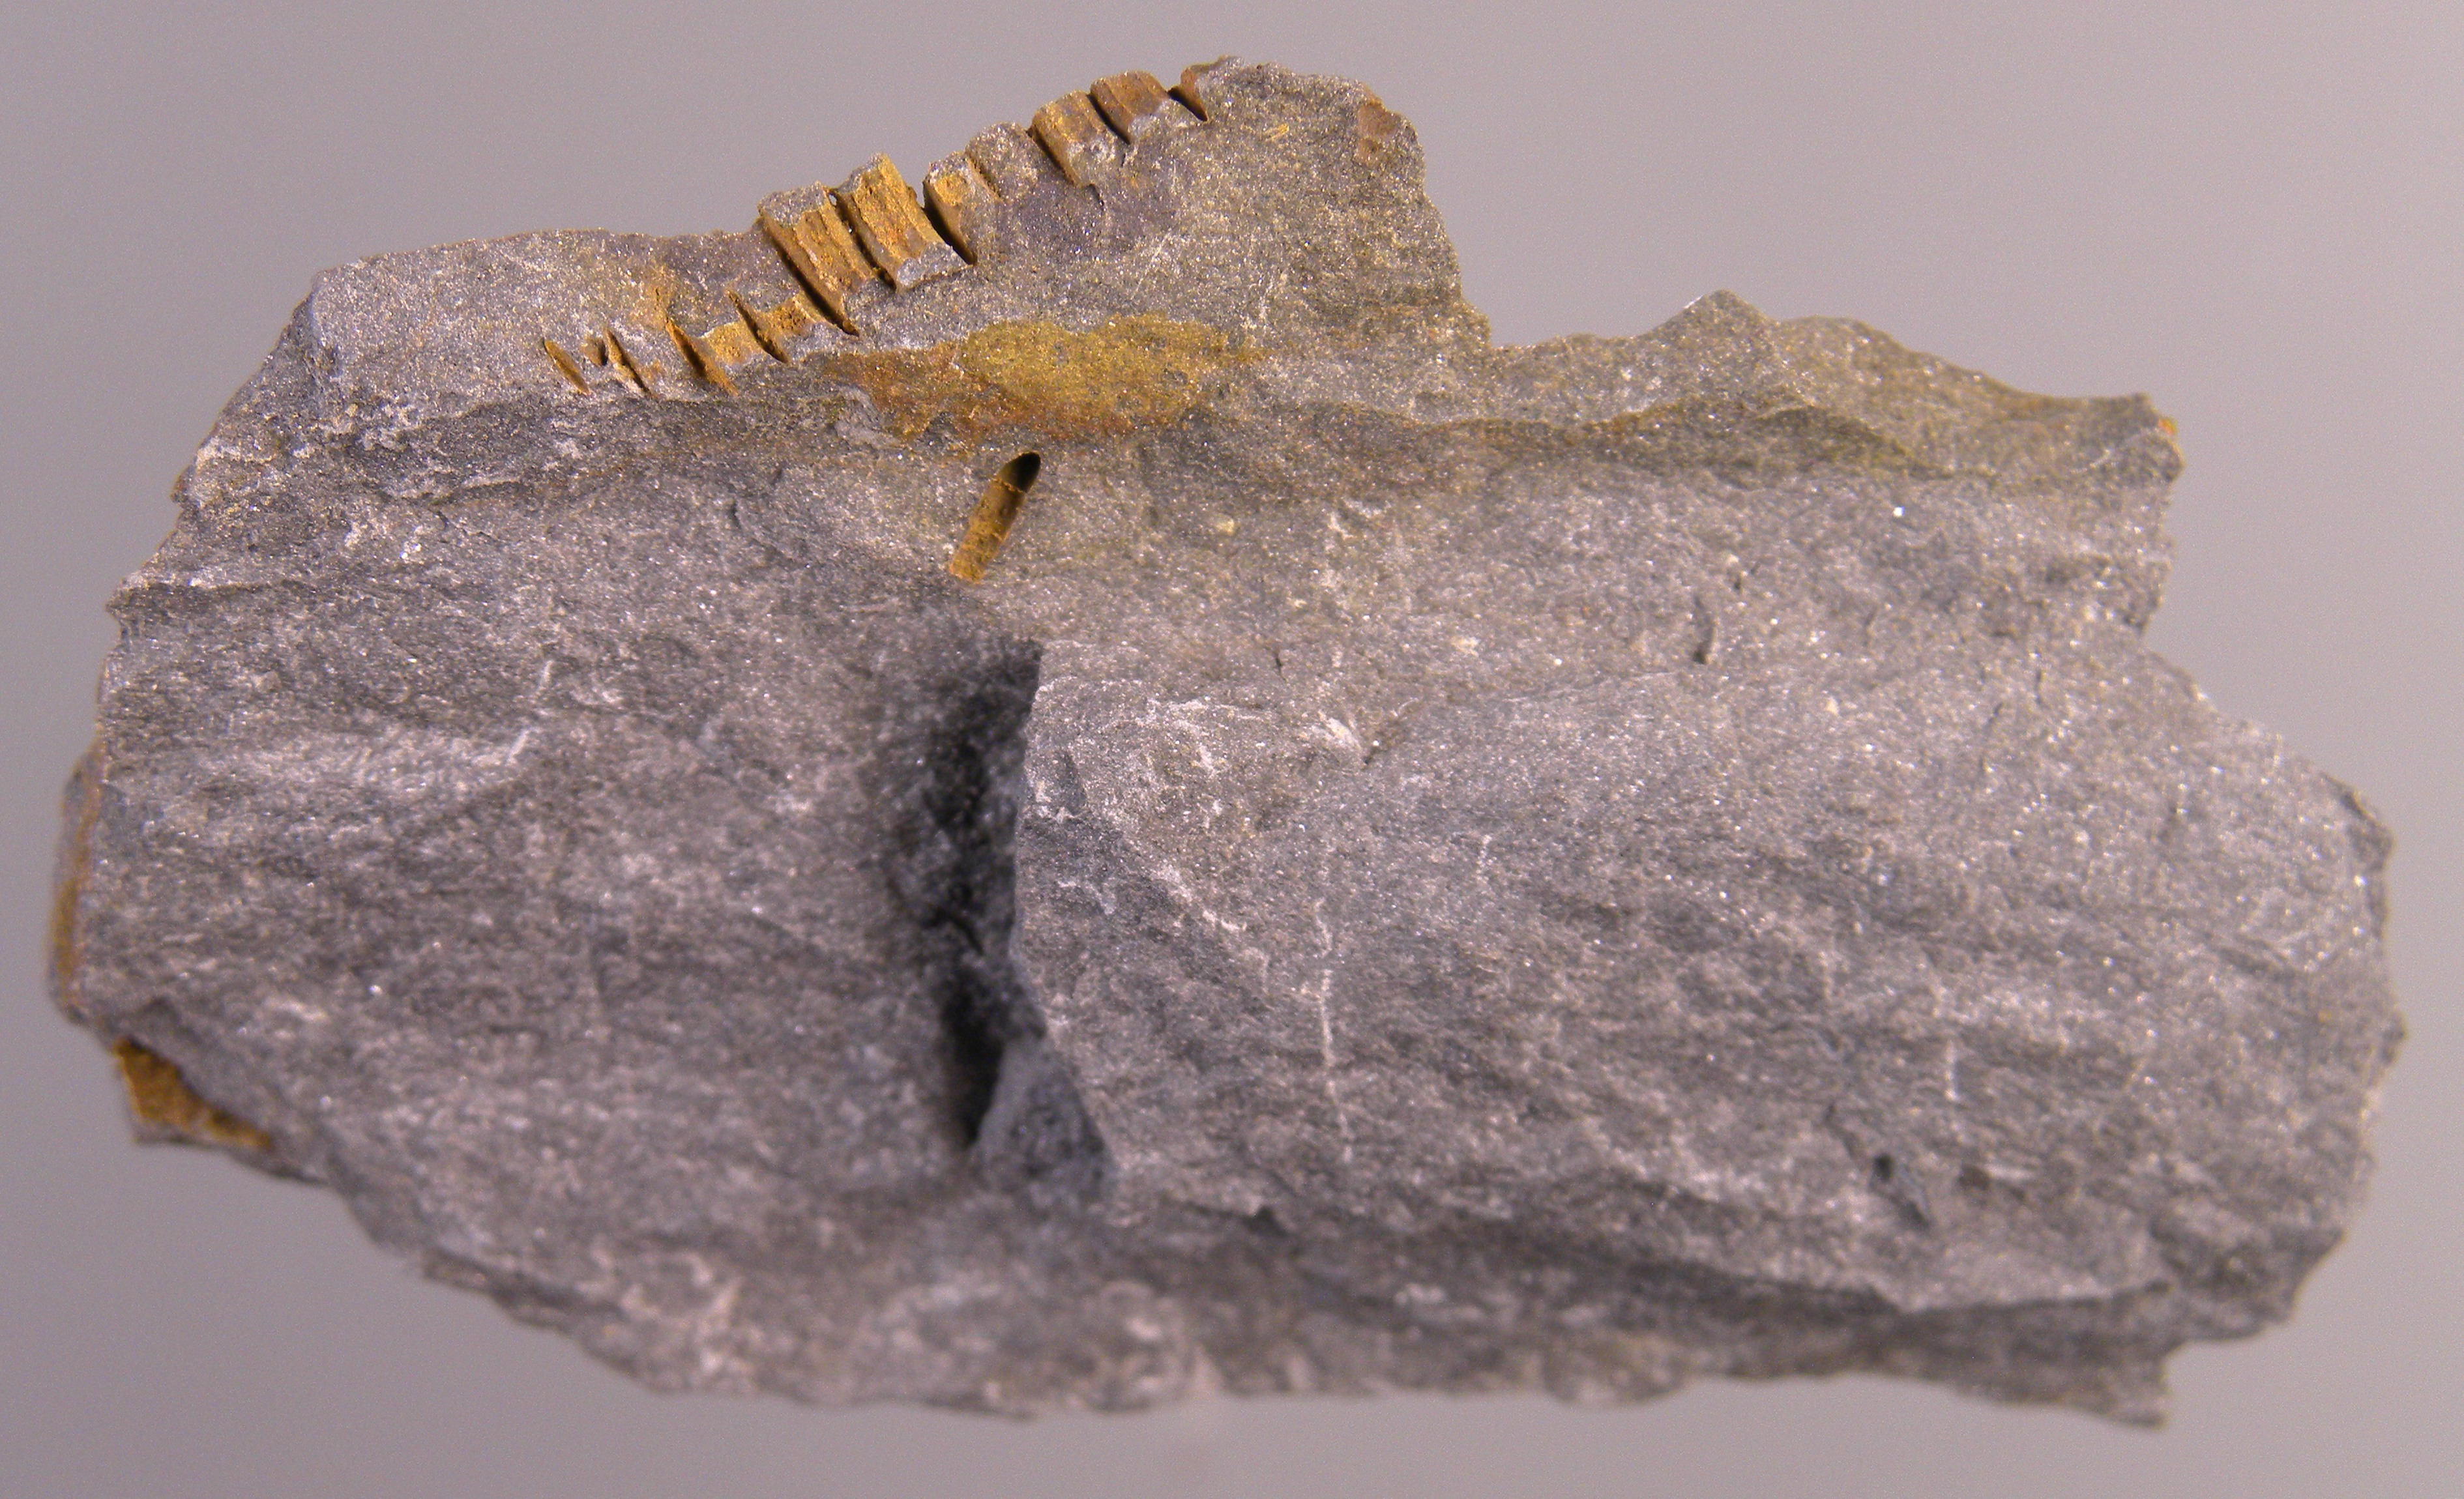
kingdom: Animalia
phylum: Echinodermata
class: Crinoidea
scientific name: Crinoidea
